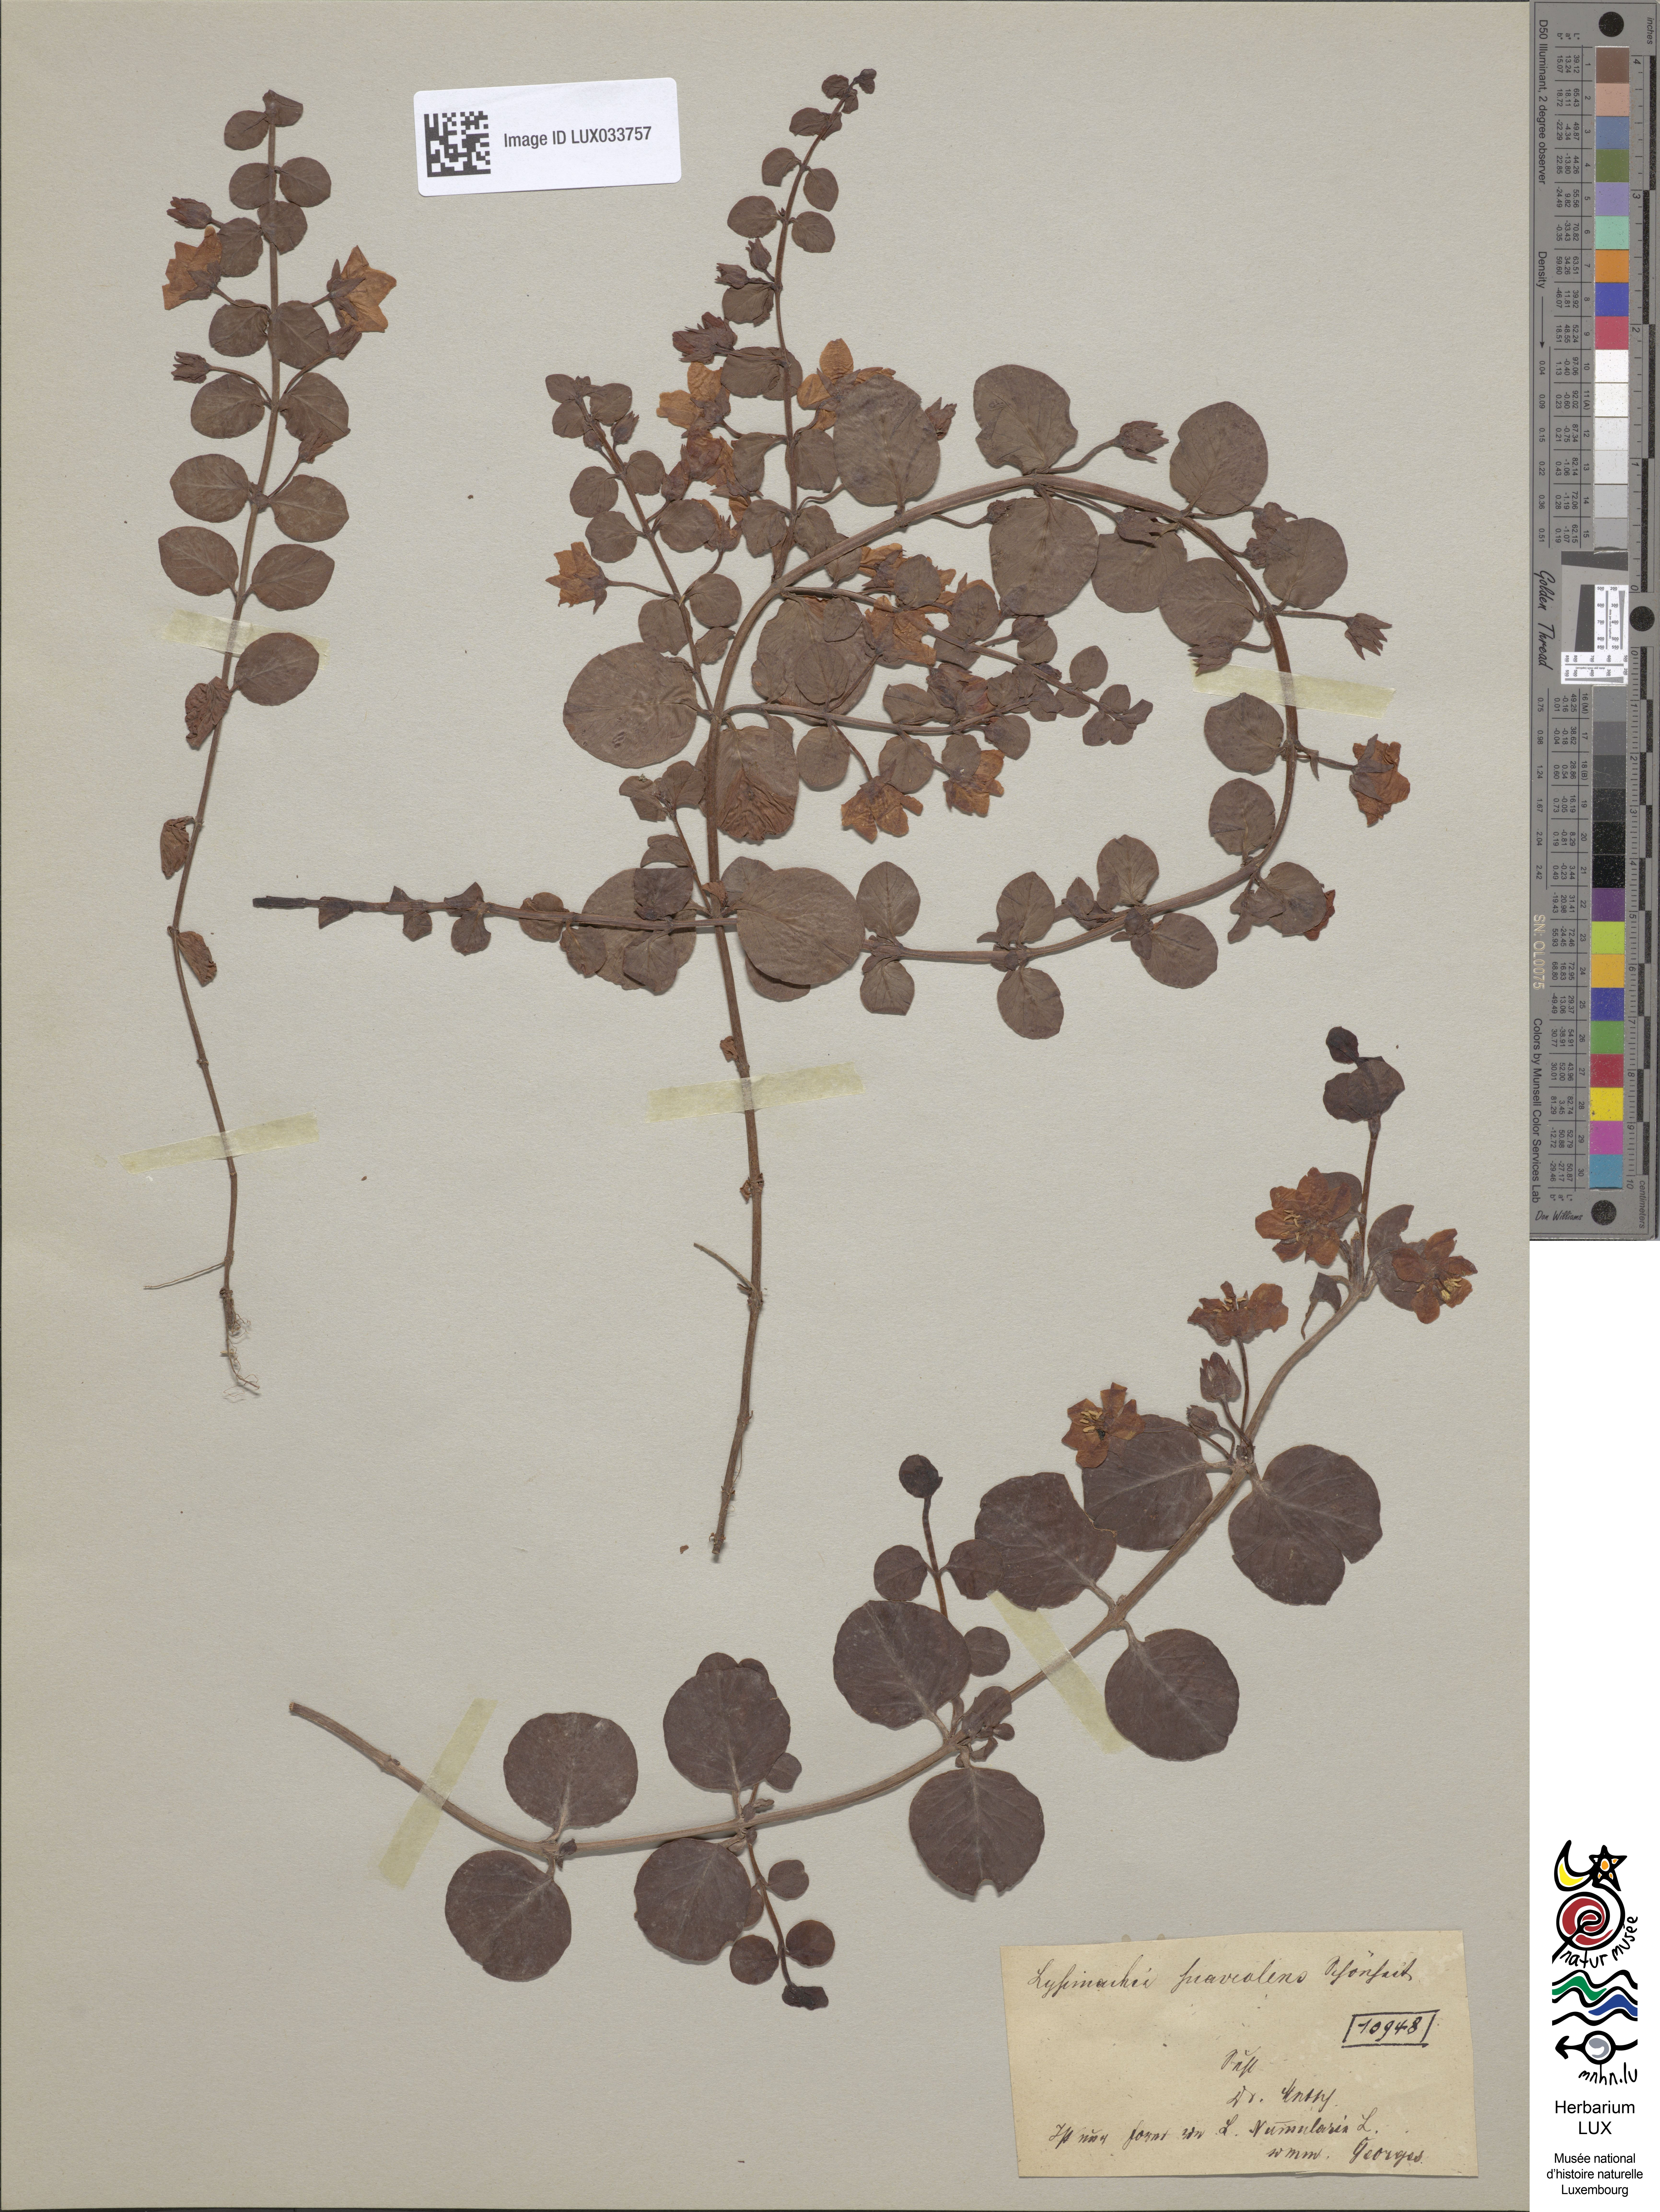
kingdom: Plantae
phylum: Tracheophyta
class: Magnoliopsida
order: Ericales
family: Primulaceae
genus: Lysimachia
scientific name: Lysimachia nummularia
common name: Moneywort
